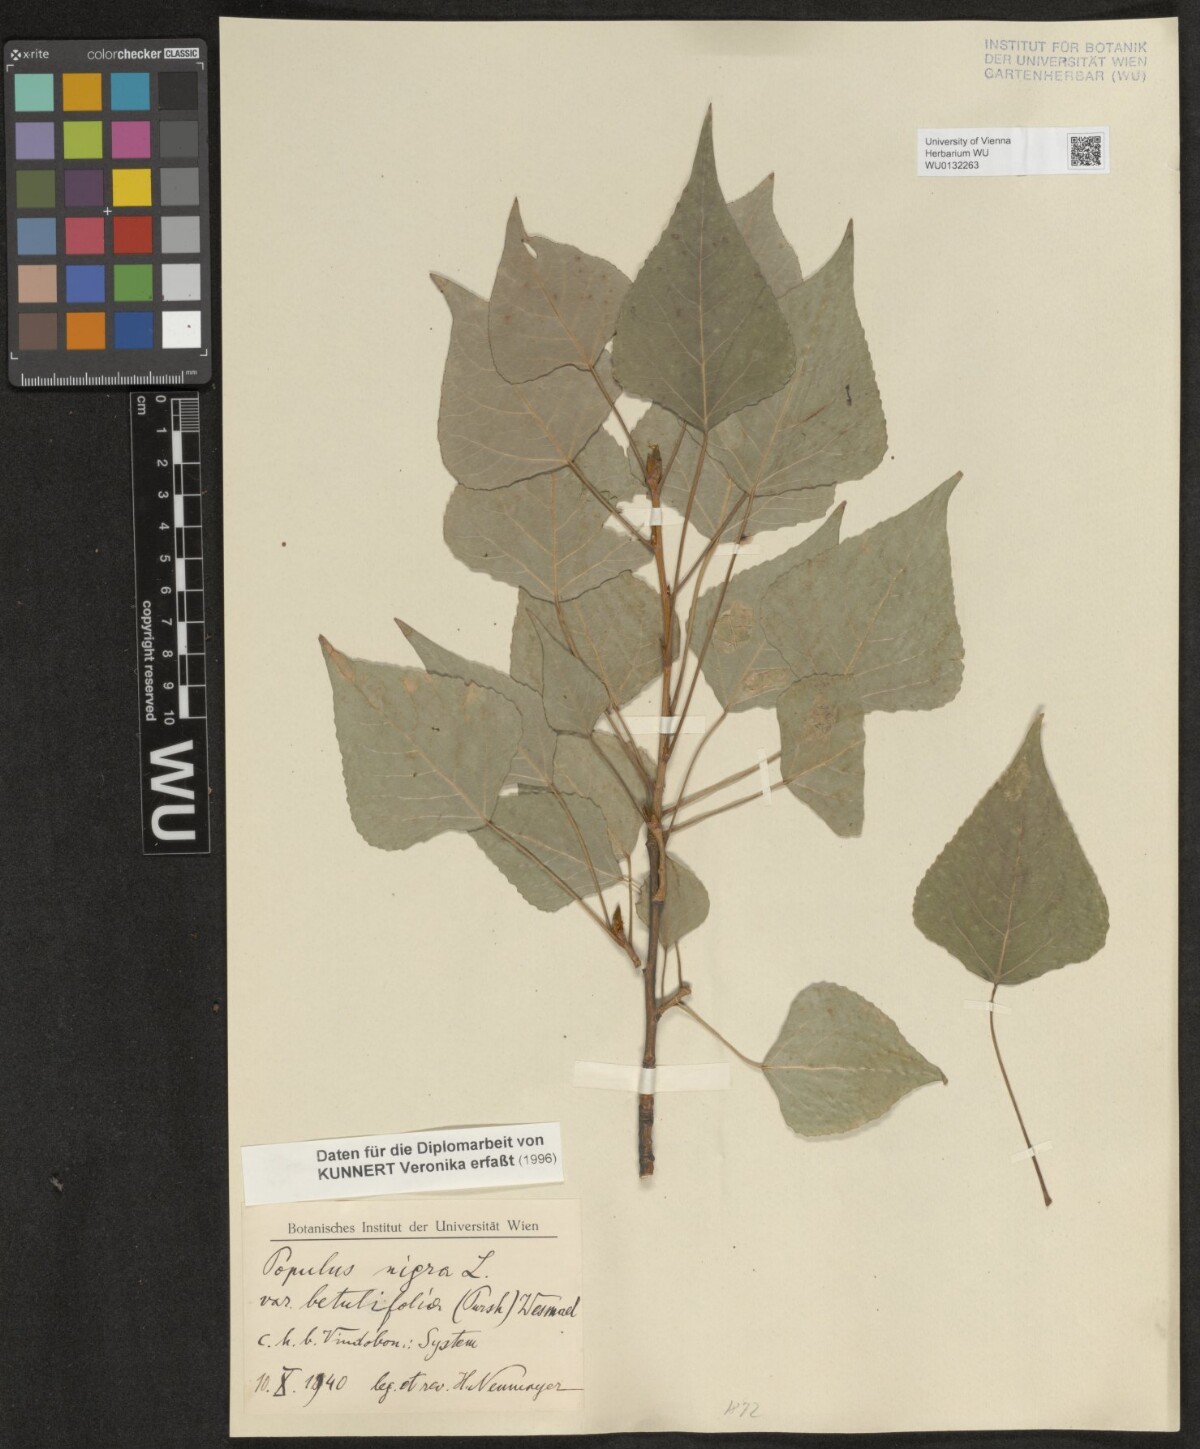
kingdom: Plantae
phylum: Tracheophyta
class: Magnoliopsida
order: Malpighiales
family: Salicaceae
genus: Populus
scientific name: Populus nigra
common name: Black poplar
